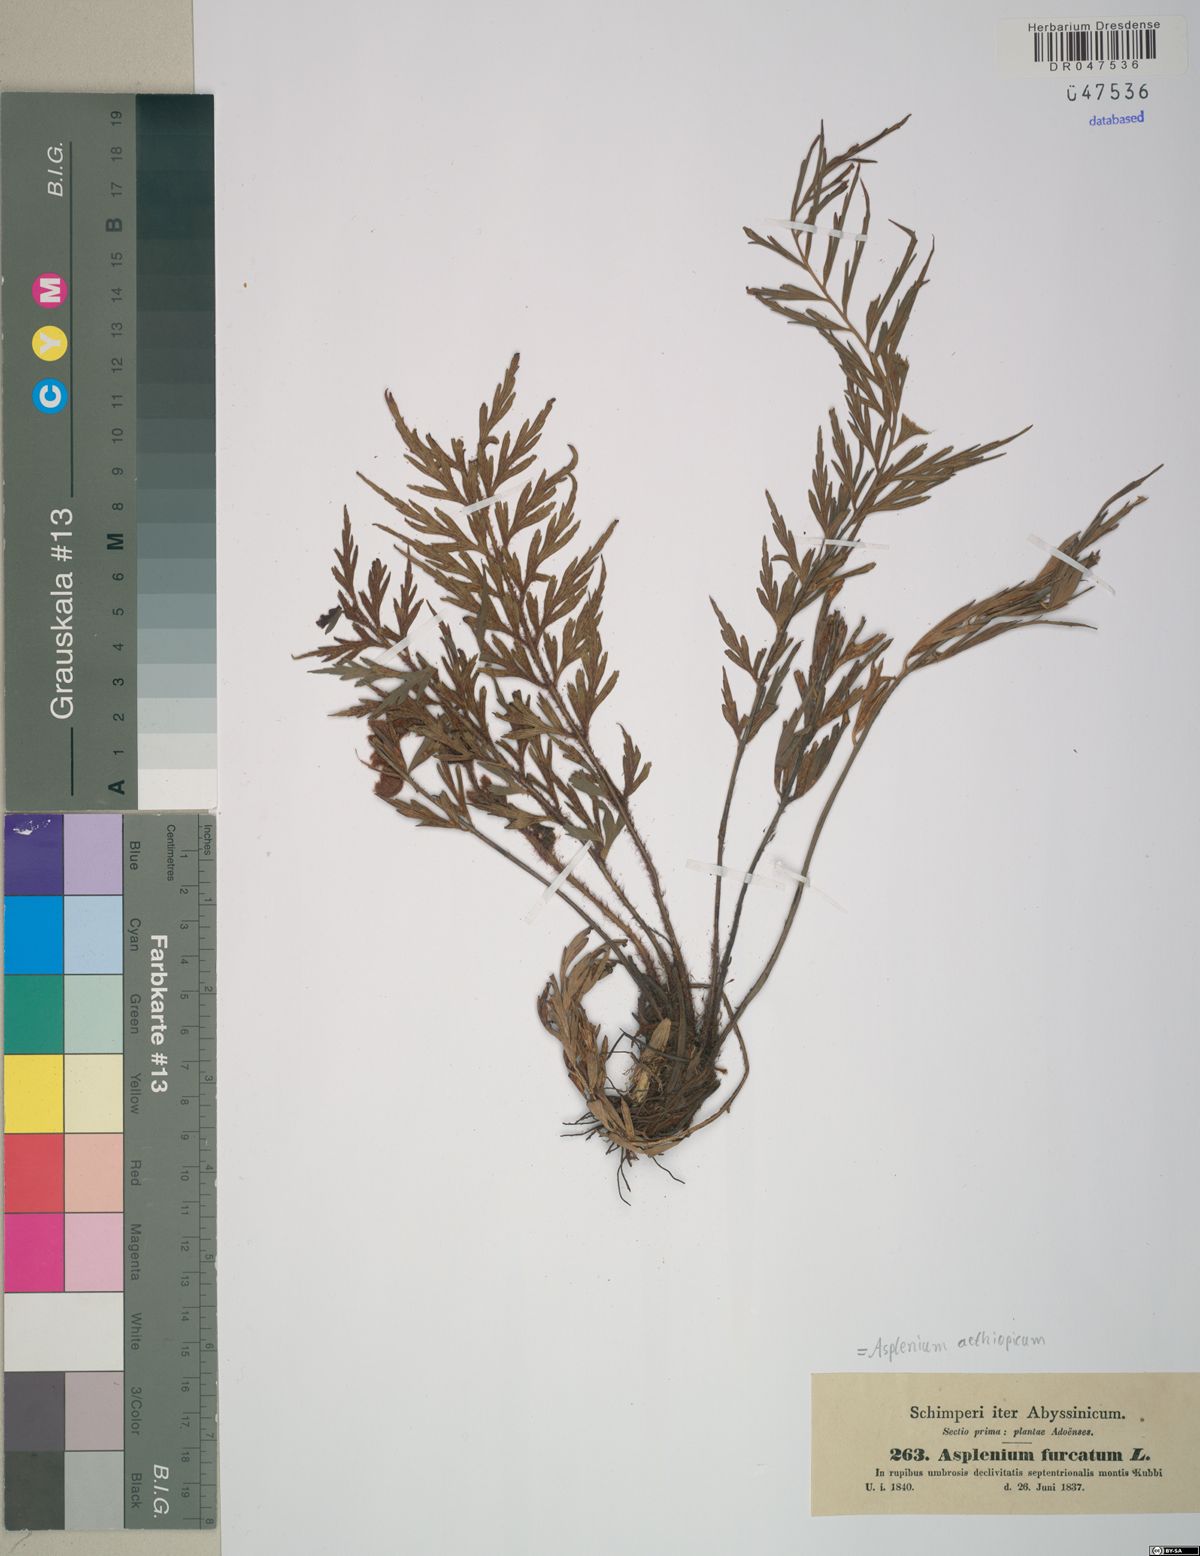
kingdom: Plantae
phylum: Tracheophyta
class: Polypodiopsida
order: Polypodiales
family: Aspleniaceae
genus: Asplenium
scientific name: Asplenium aethiopicum
